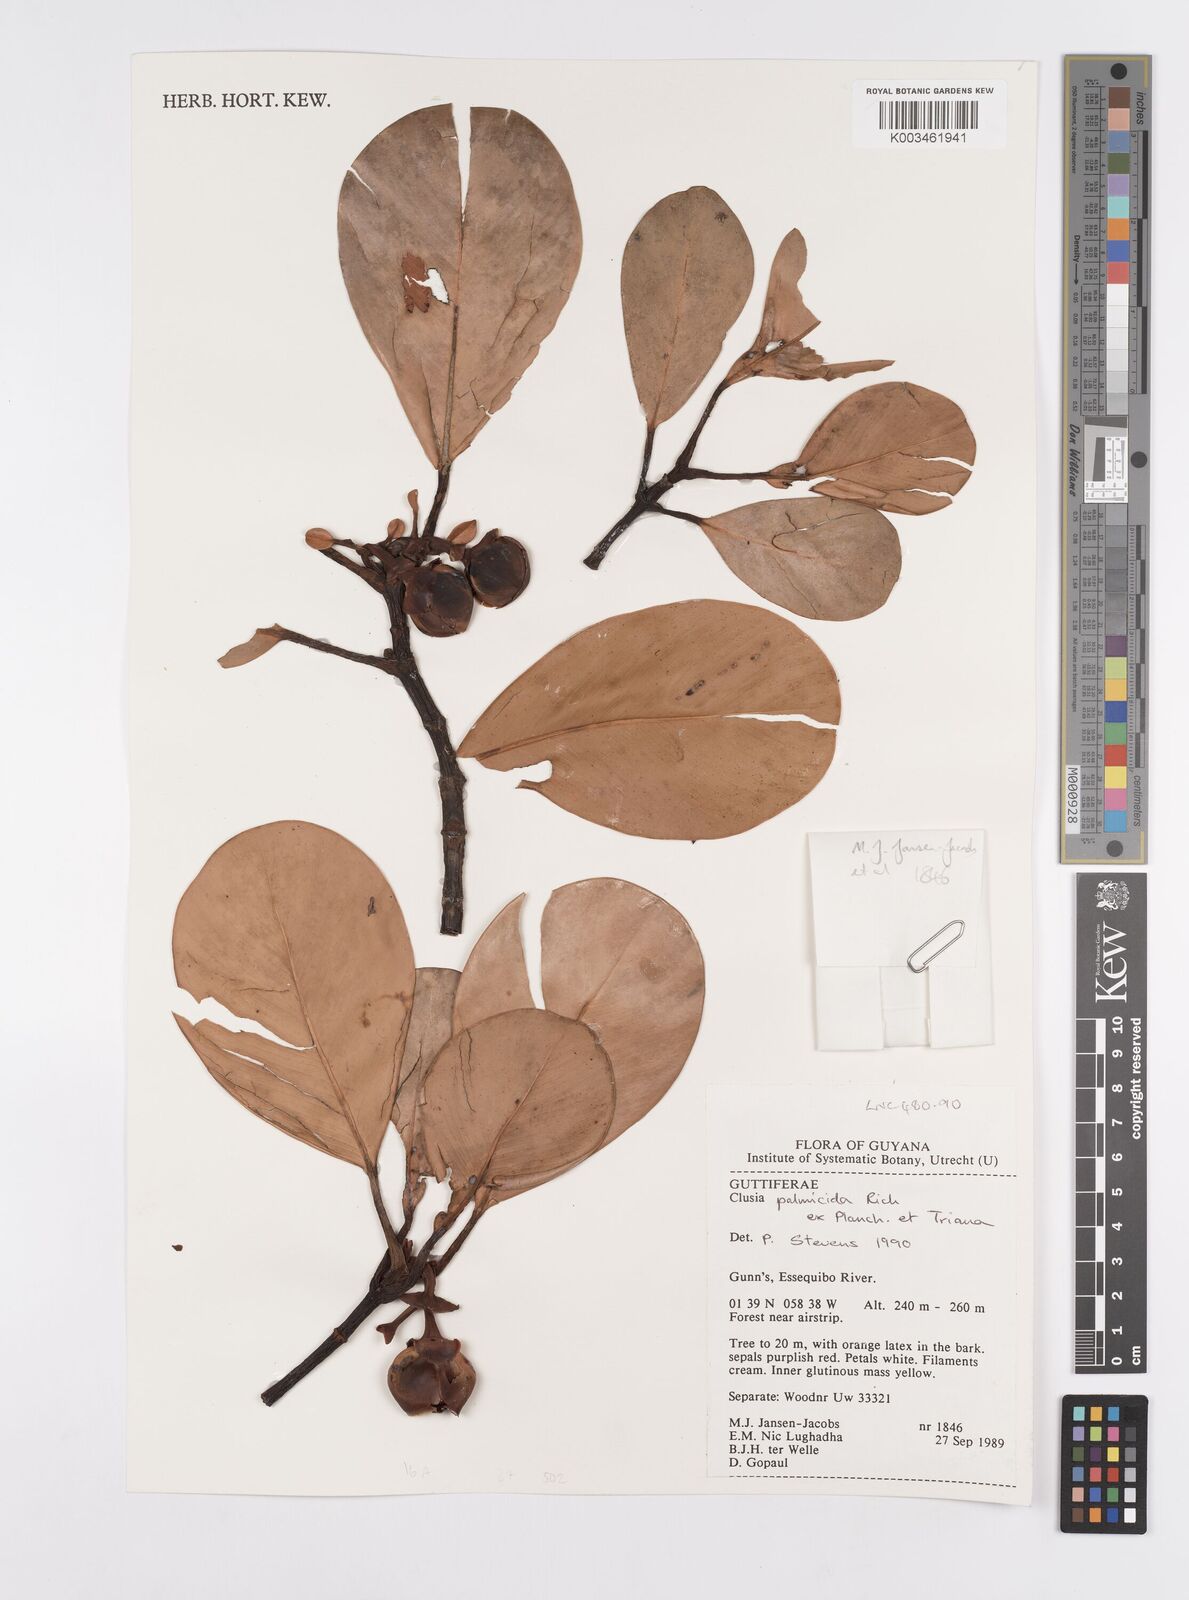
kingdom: Plantae
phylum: Tracheophyta
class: Magnoliopsida
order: Malpighiales
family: Clusiaceae
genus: Clusia
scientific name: Clusia palmicida
